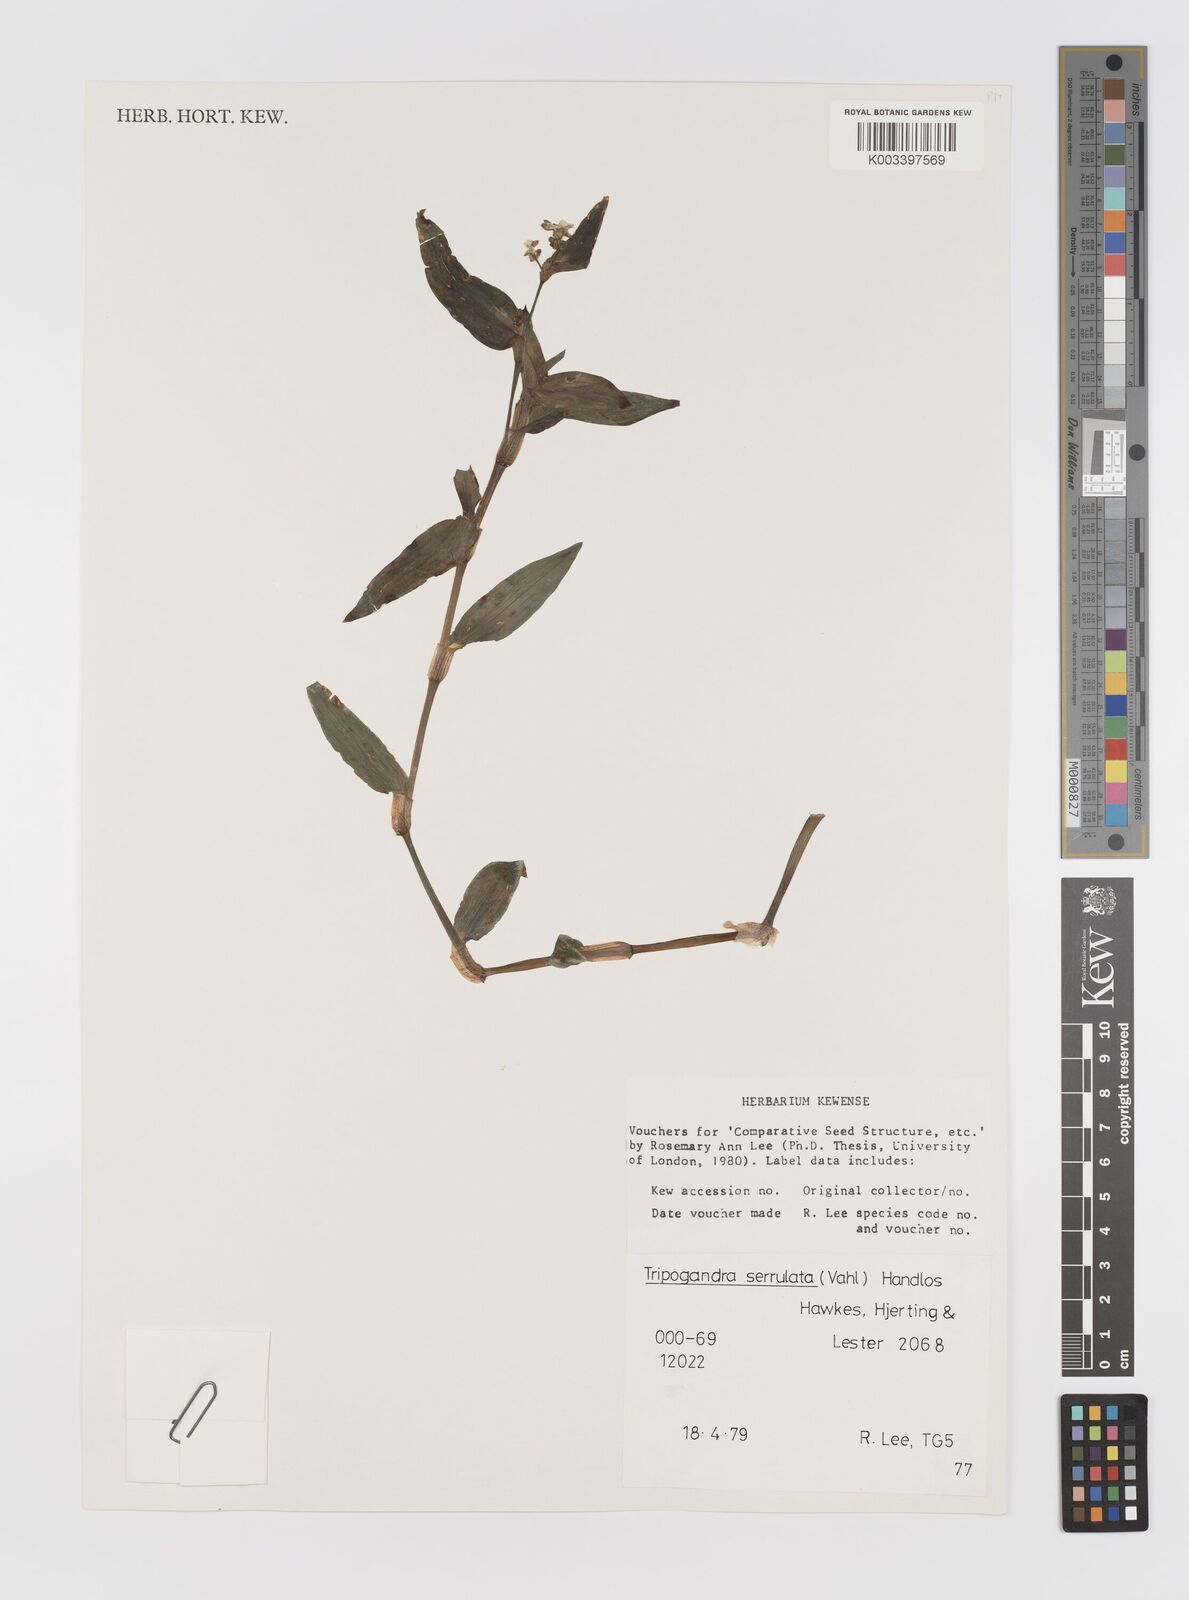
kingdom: Plantae
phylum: Tracheophyta
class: Liliopsida
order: Commelinales
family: Commelinaceae
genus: Callisia
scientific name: Callisia serrulata
